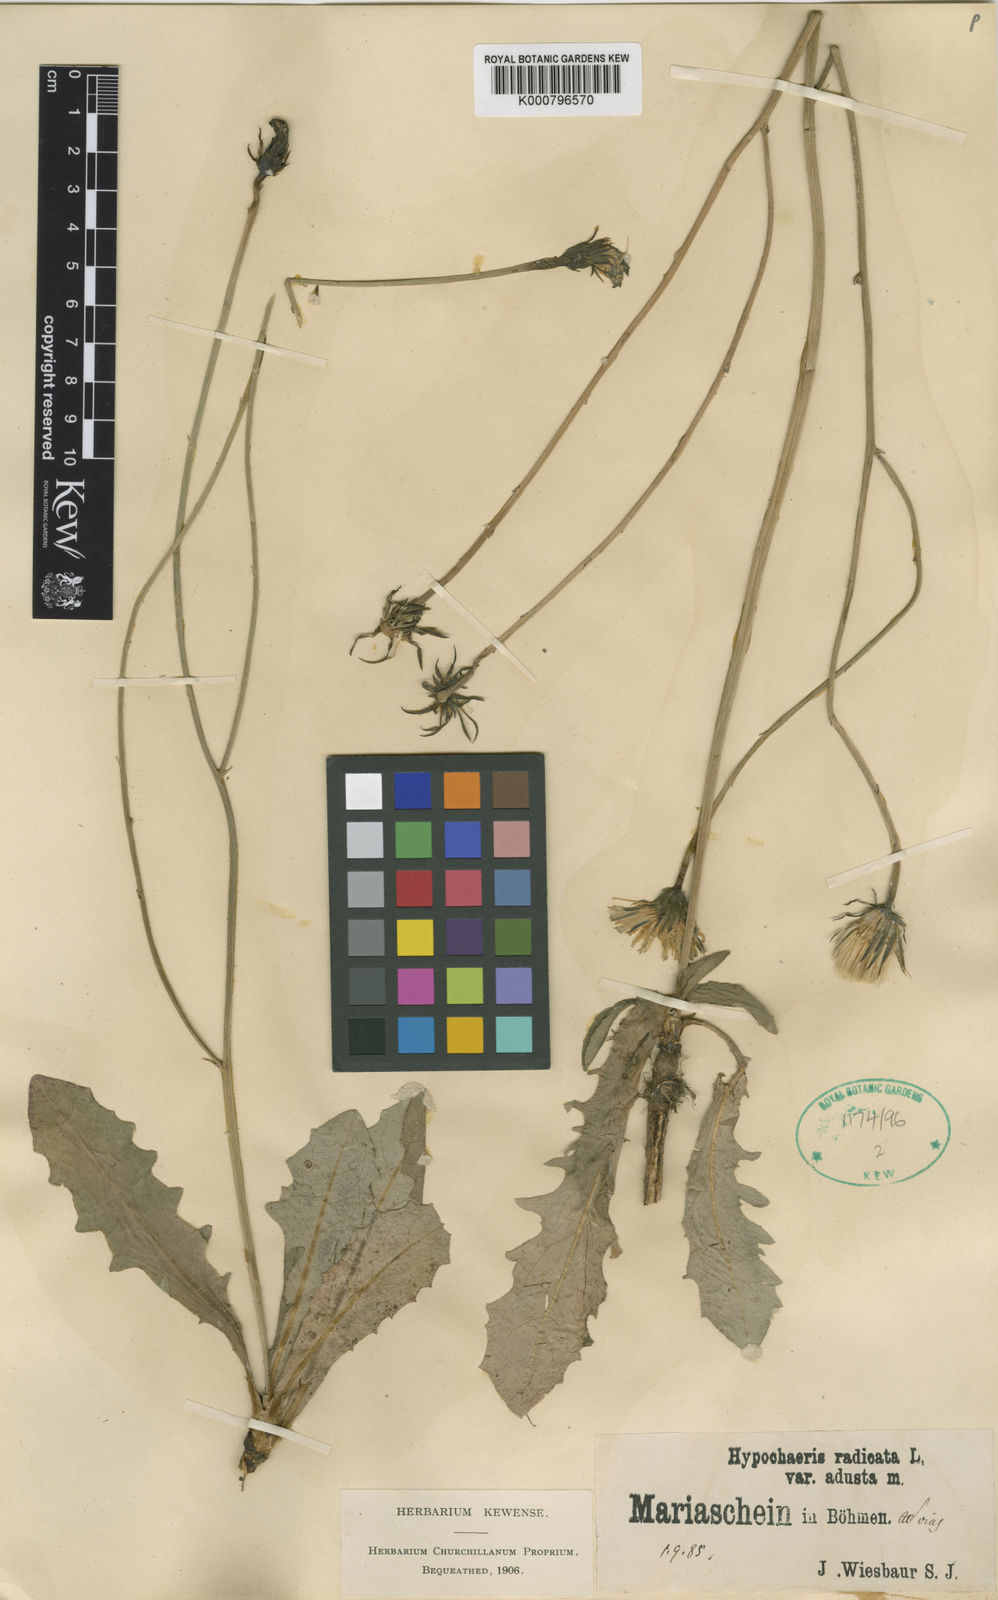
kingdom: Plantae
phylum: Tracheophyta
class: Magnoliopsida
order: Asterales
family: Asteraceae
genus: Hypochaeris
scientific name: Hypochaeris radicata
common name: Flatweed
